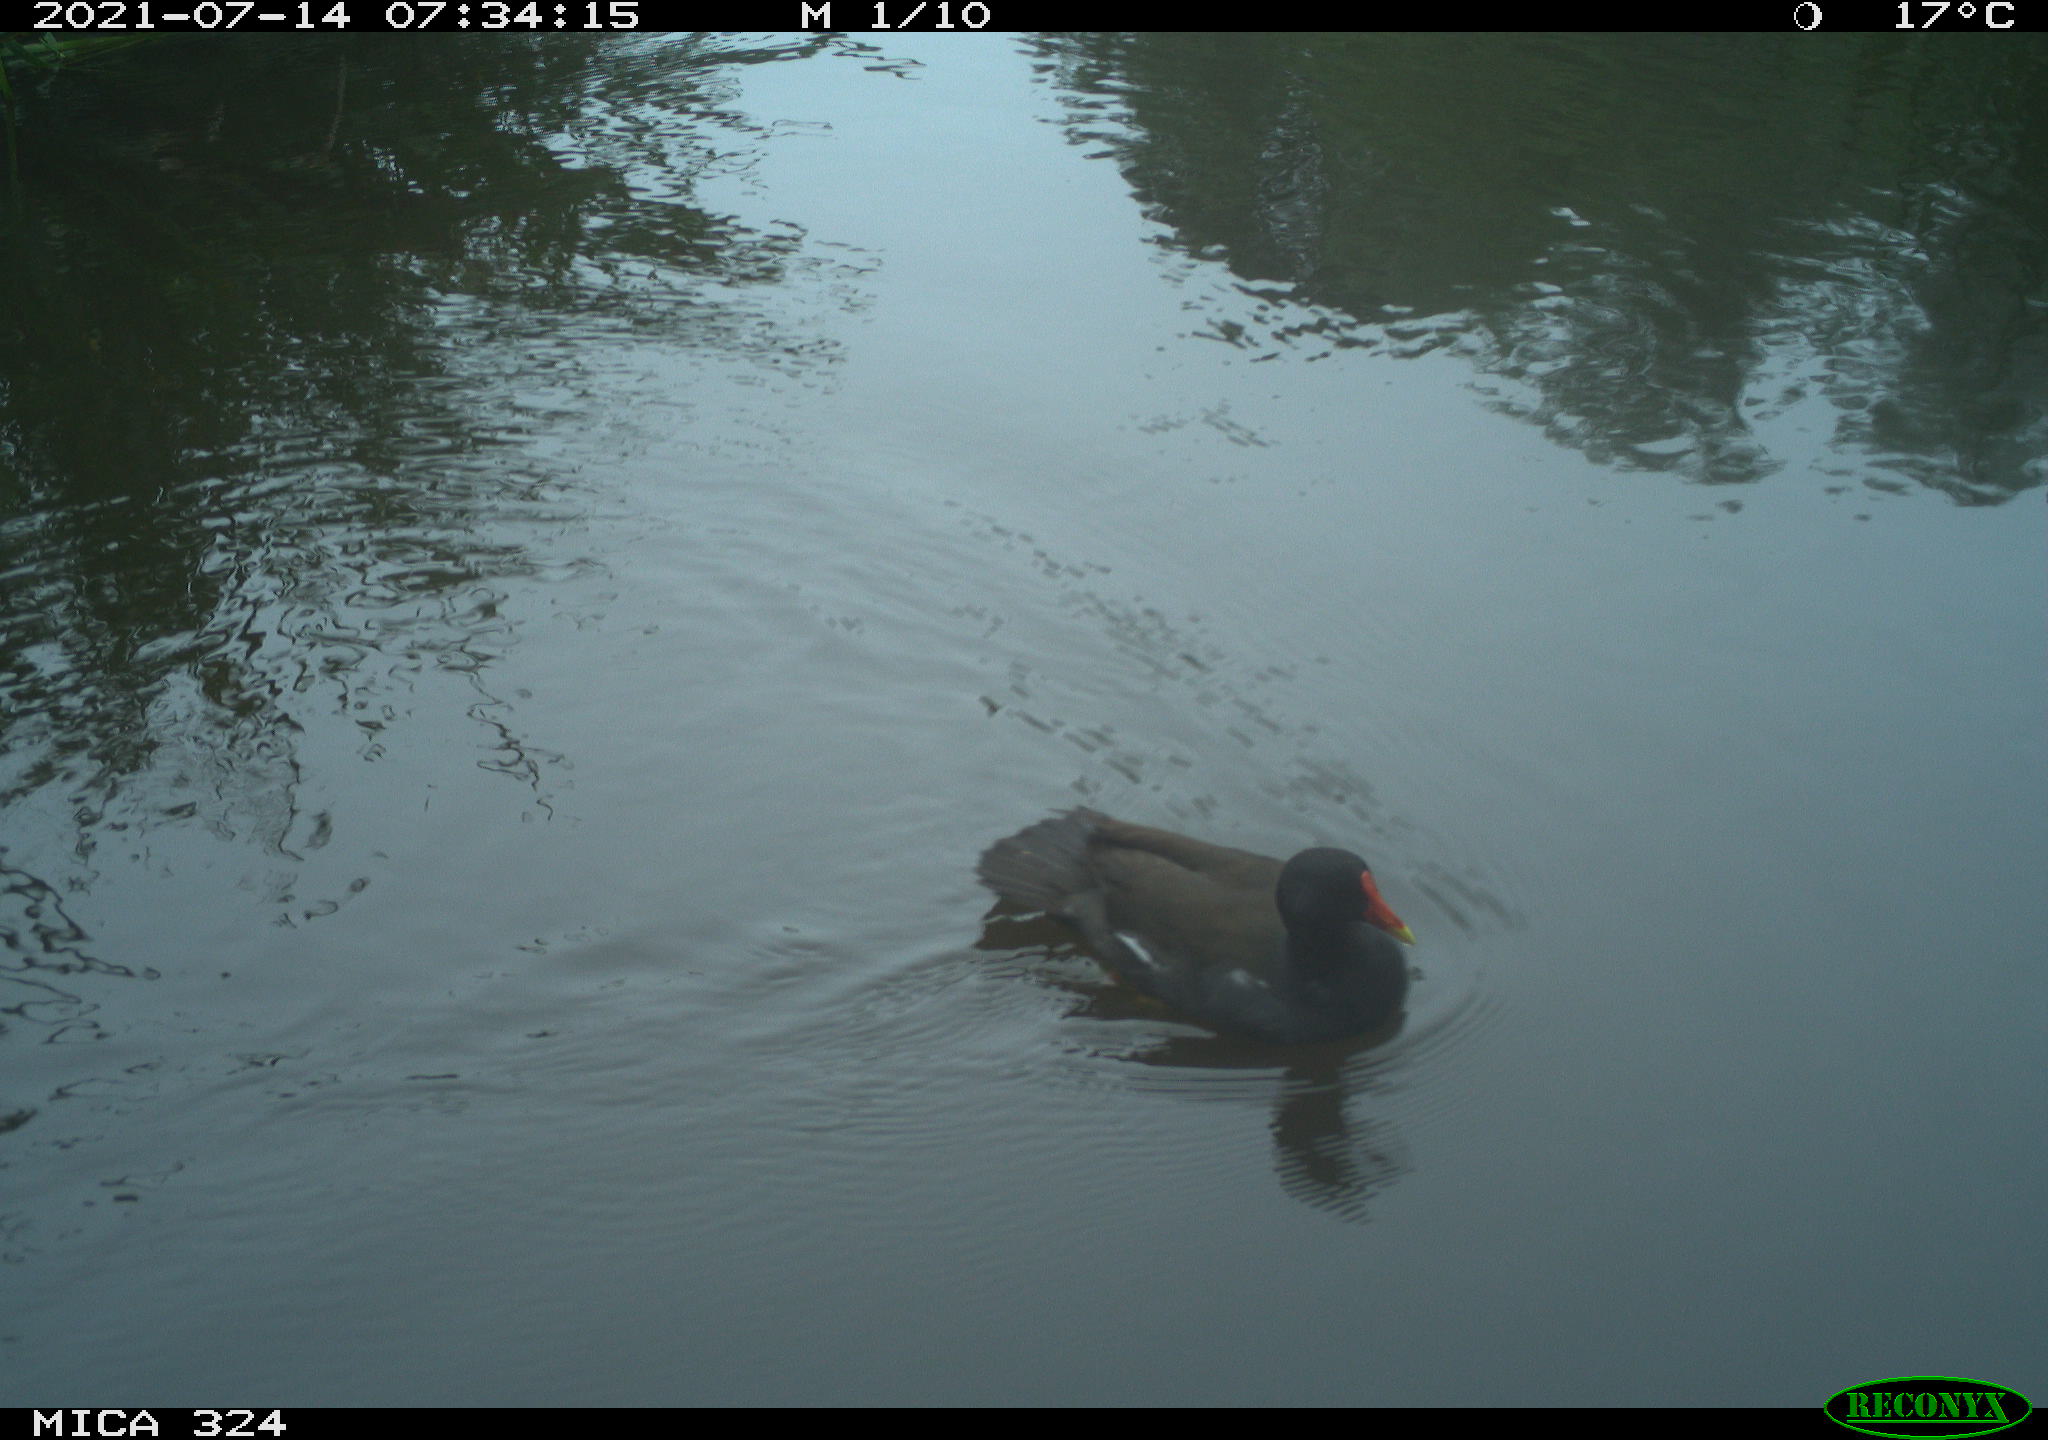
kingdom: Animalia
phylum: Chordata
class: Aves
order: Gruiformes
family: Rallidae
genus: Gallinula
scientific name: Gallinula chloropus
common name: Common moorhen
